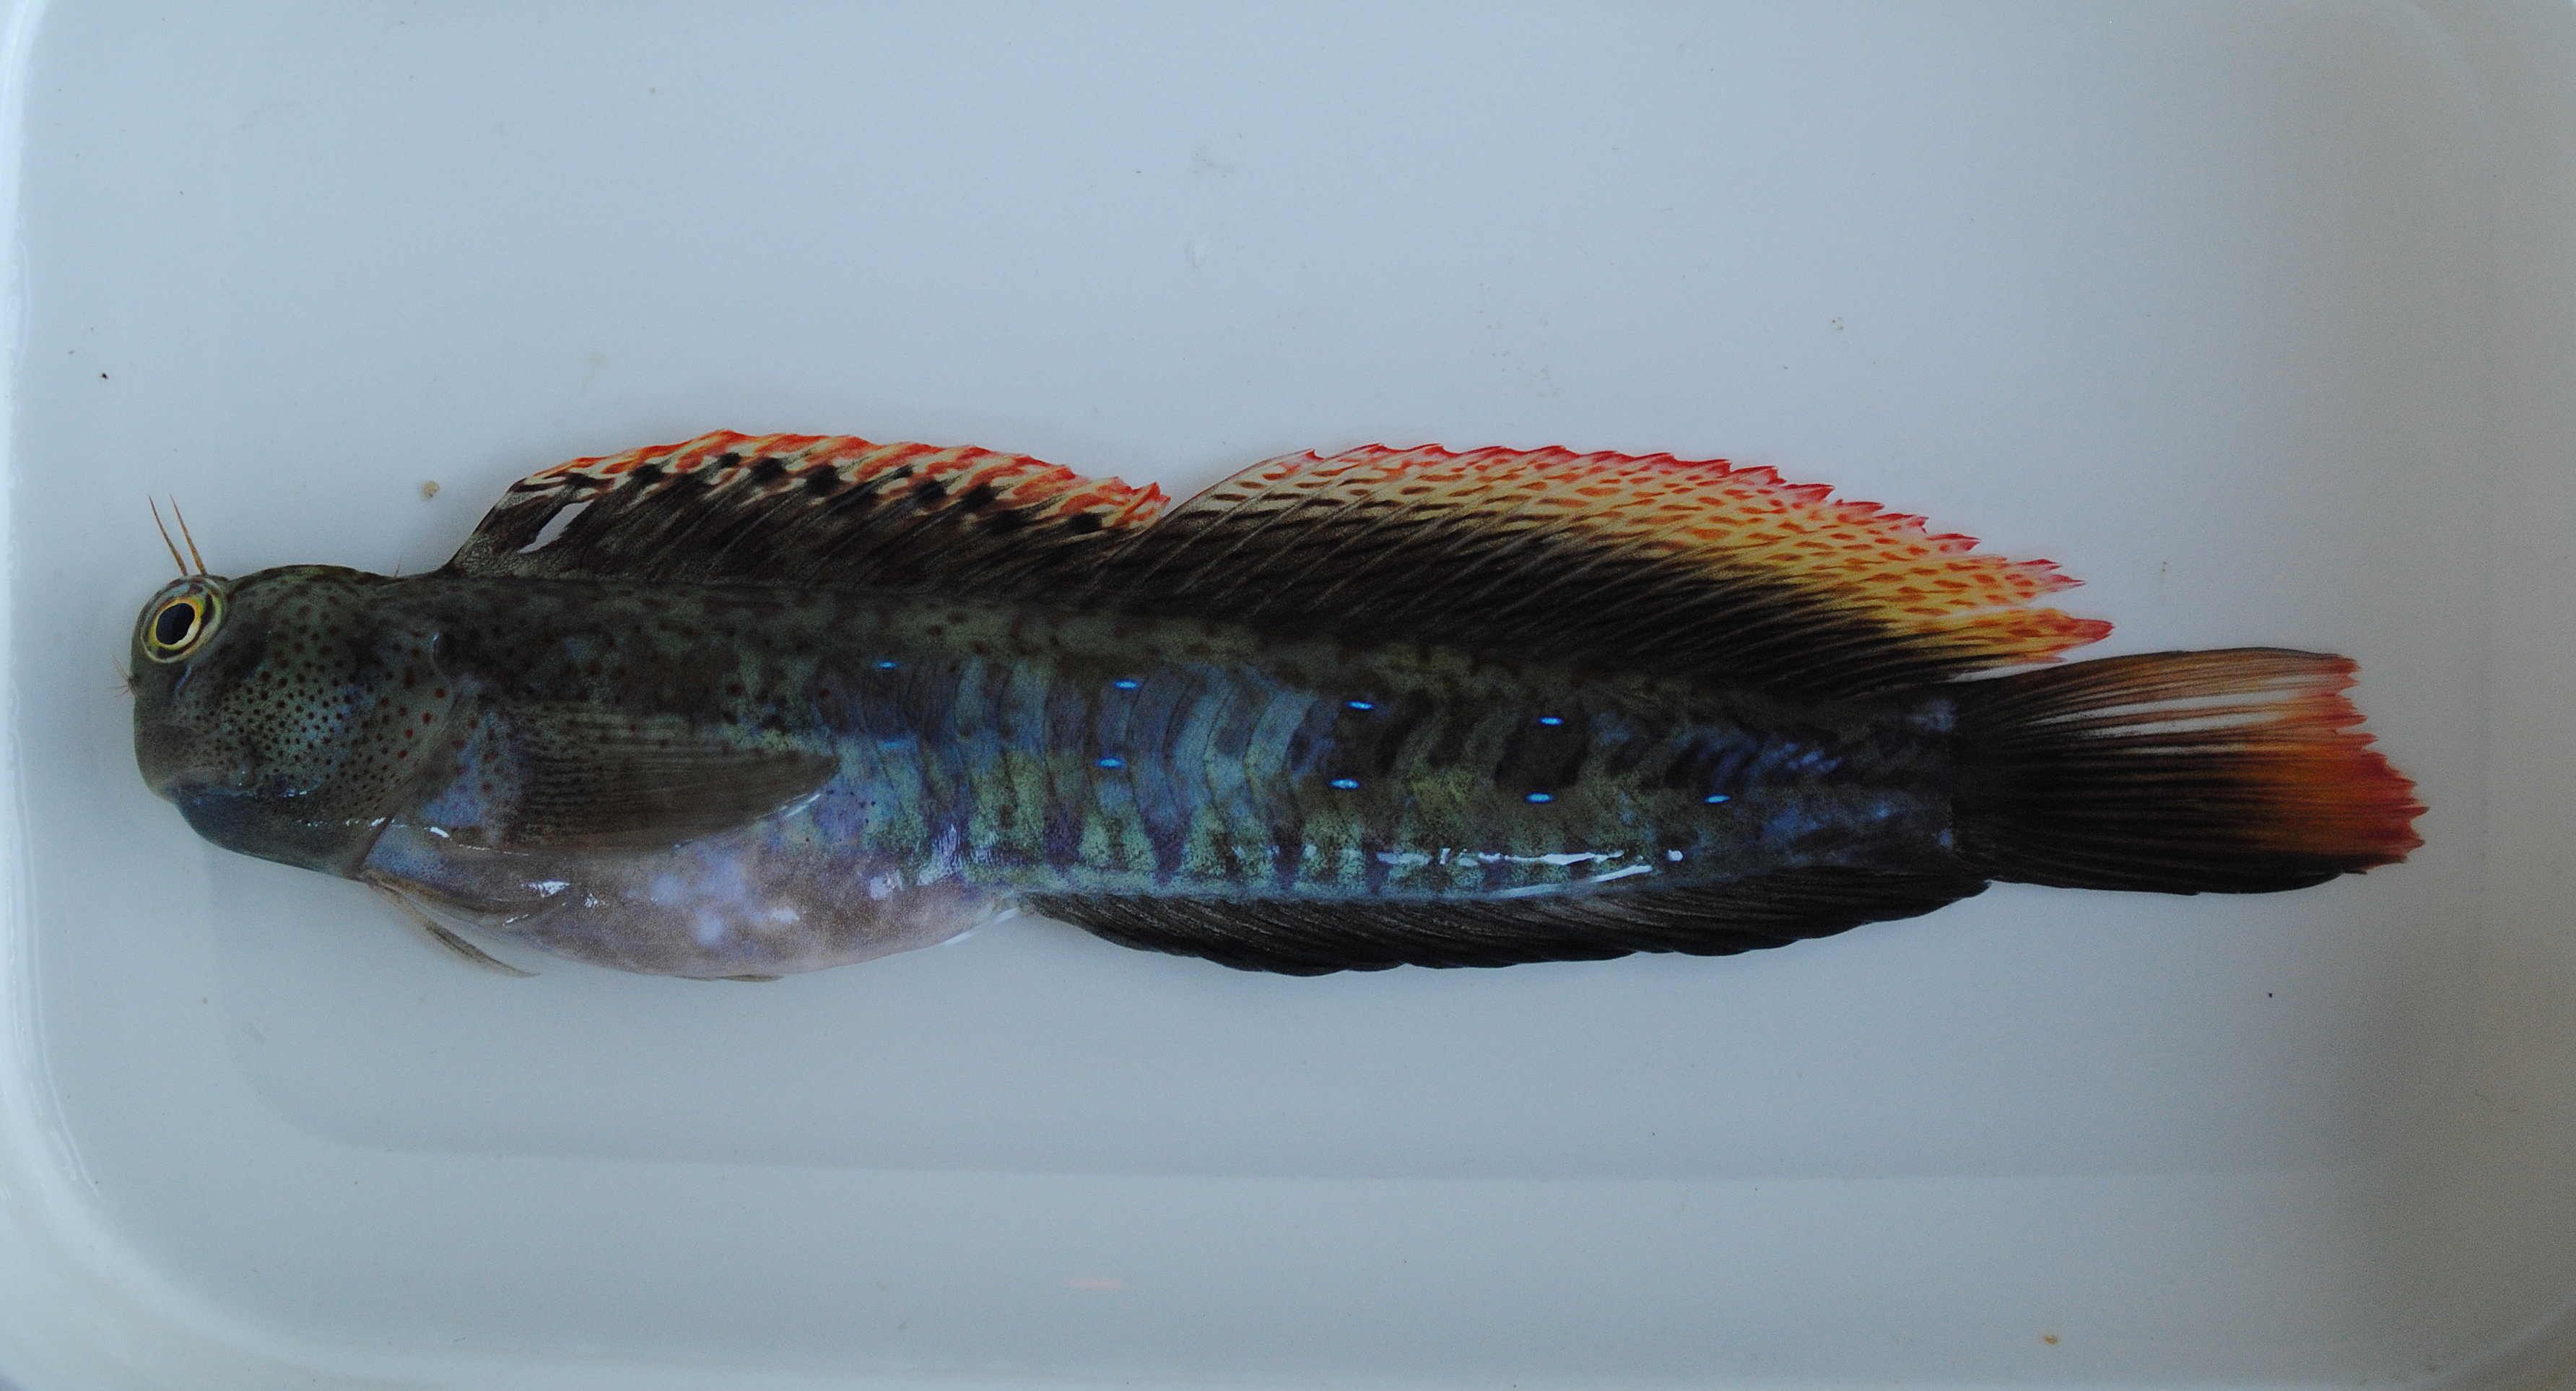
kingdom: Animalia
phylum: Chordata
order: Perciformes
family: Blenniidae
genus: Istiblennius
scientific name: Istiblennius bellus
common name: Beautiful rockskipper
